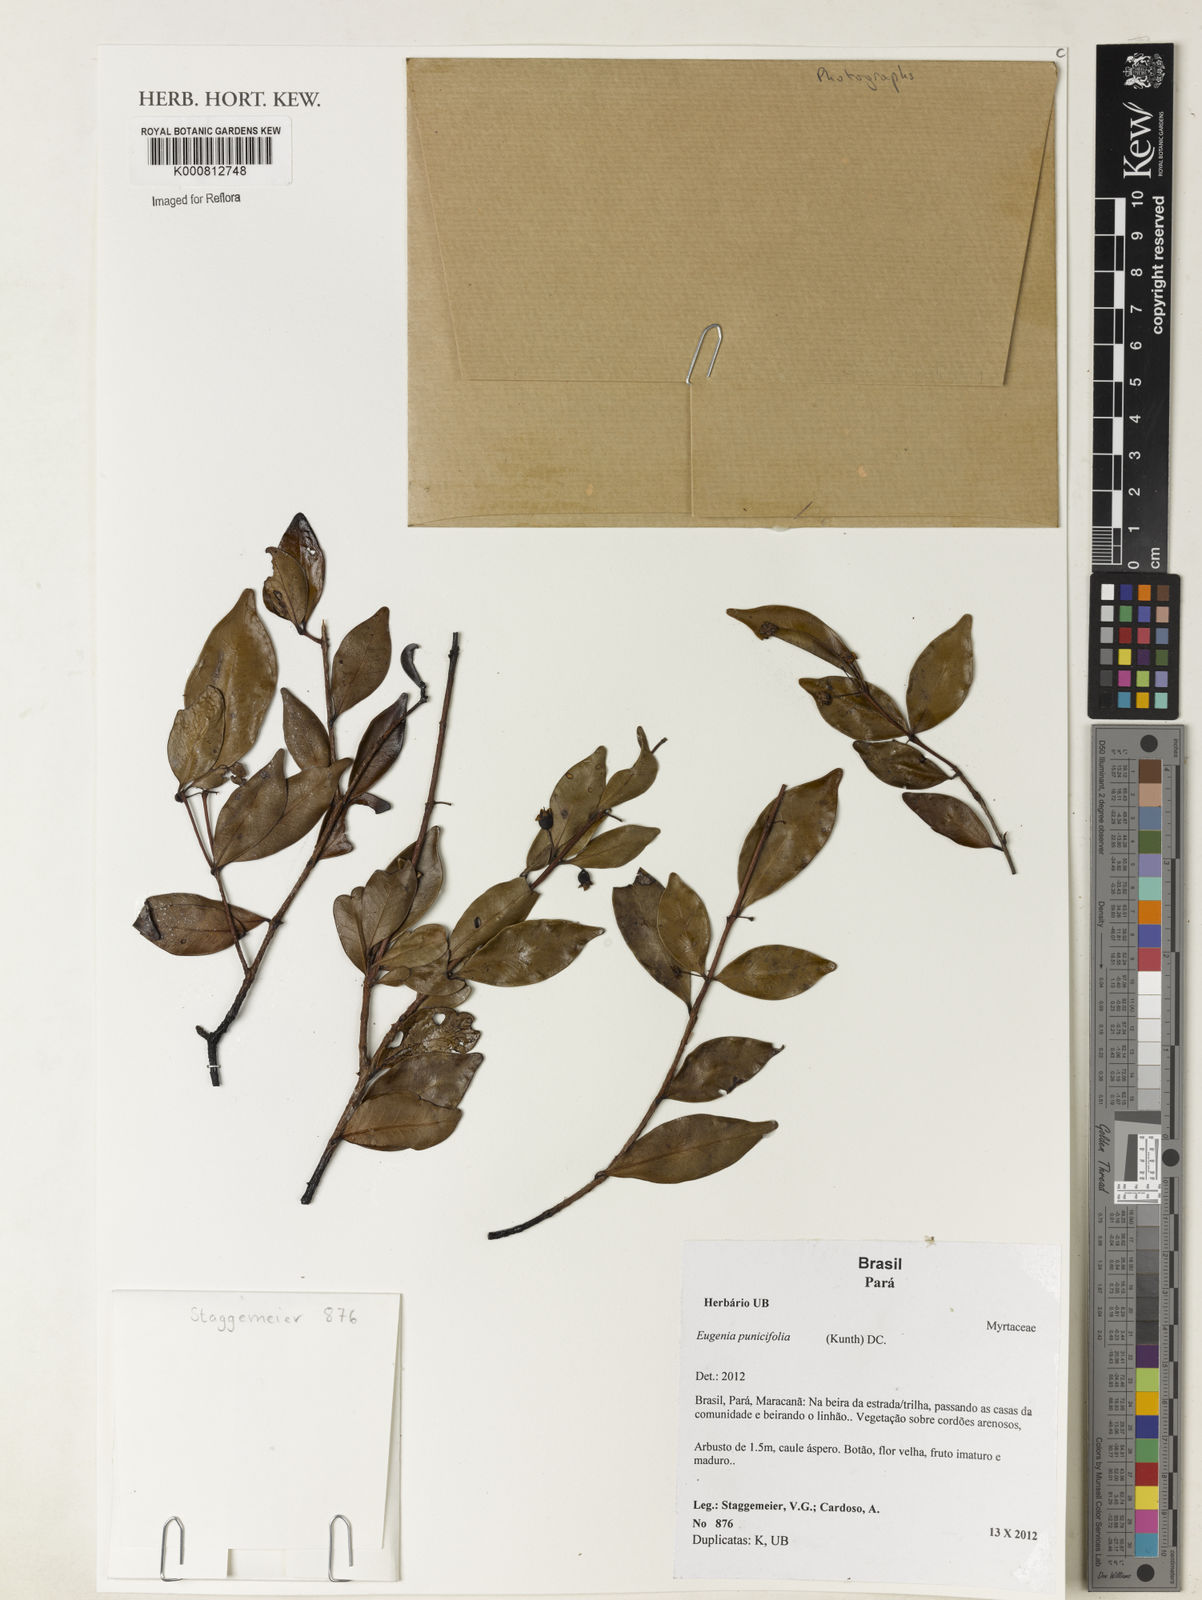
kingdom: Plantae
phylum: Tracheophyta
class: Magnoliopsida
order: Myrtales
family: Myrtaceae
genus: Eugenia
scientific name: Eugenia punicifolia
